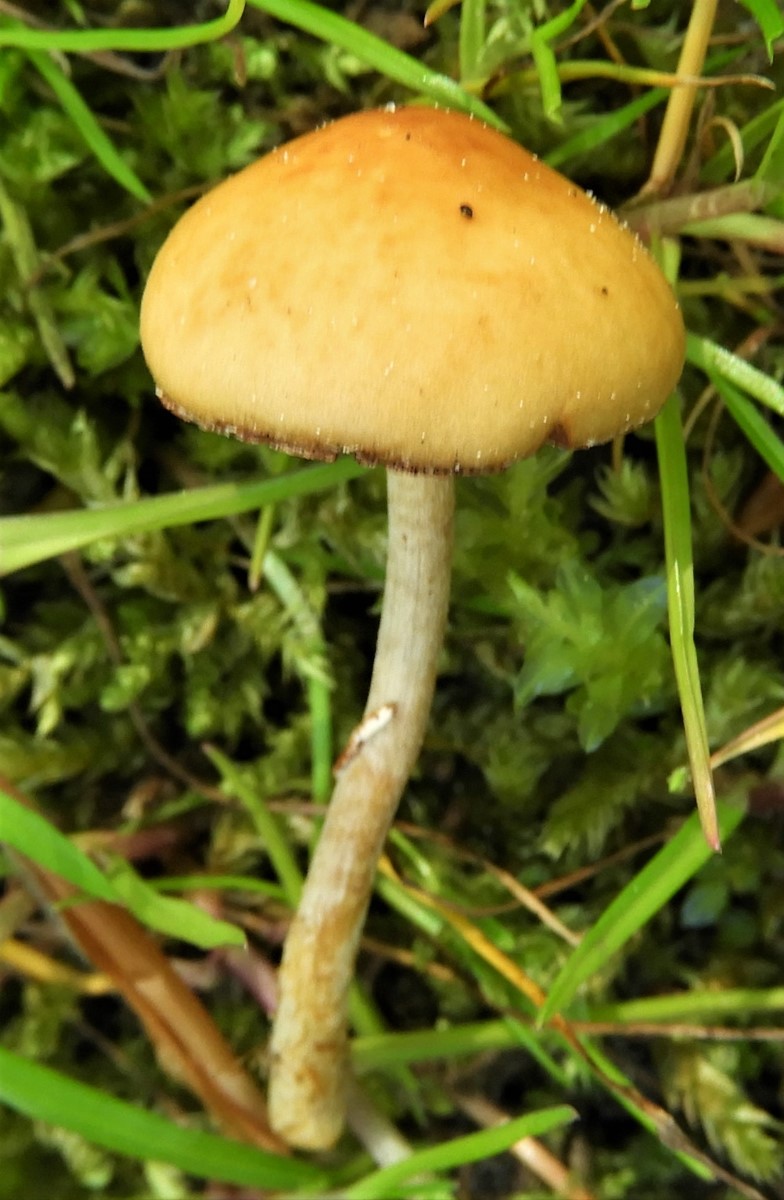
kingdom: Fungi
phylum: Basidiomycota
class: Agaricomycetes
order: Agaricales
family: Bolbitiaceae
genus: Conocybe
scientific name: Conocybe aporos
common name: tidlig dansehat
